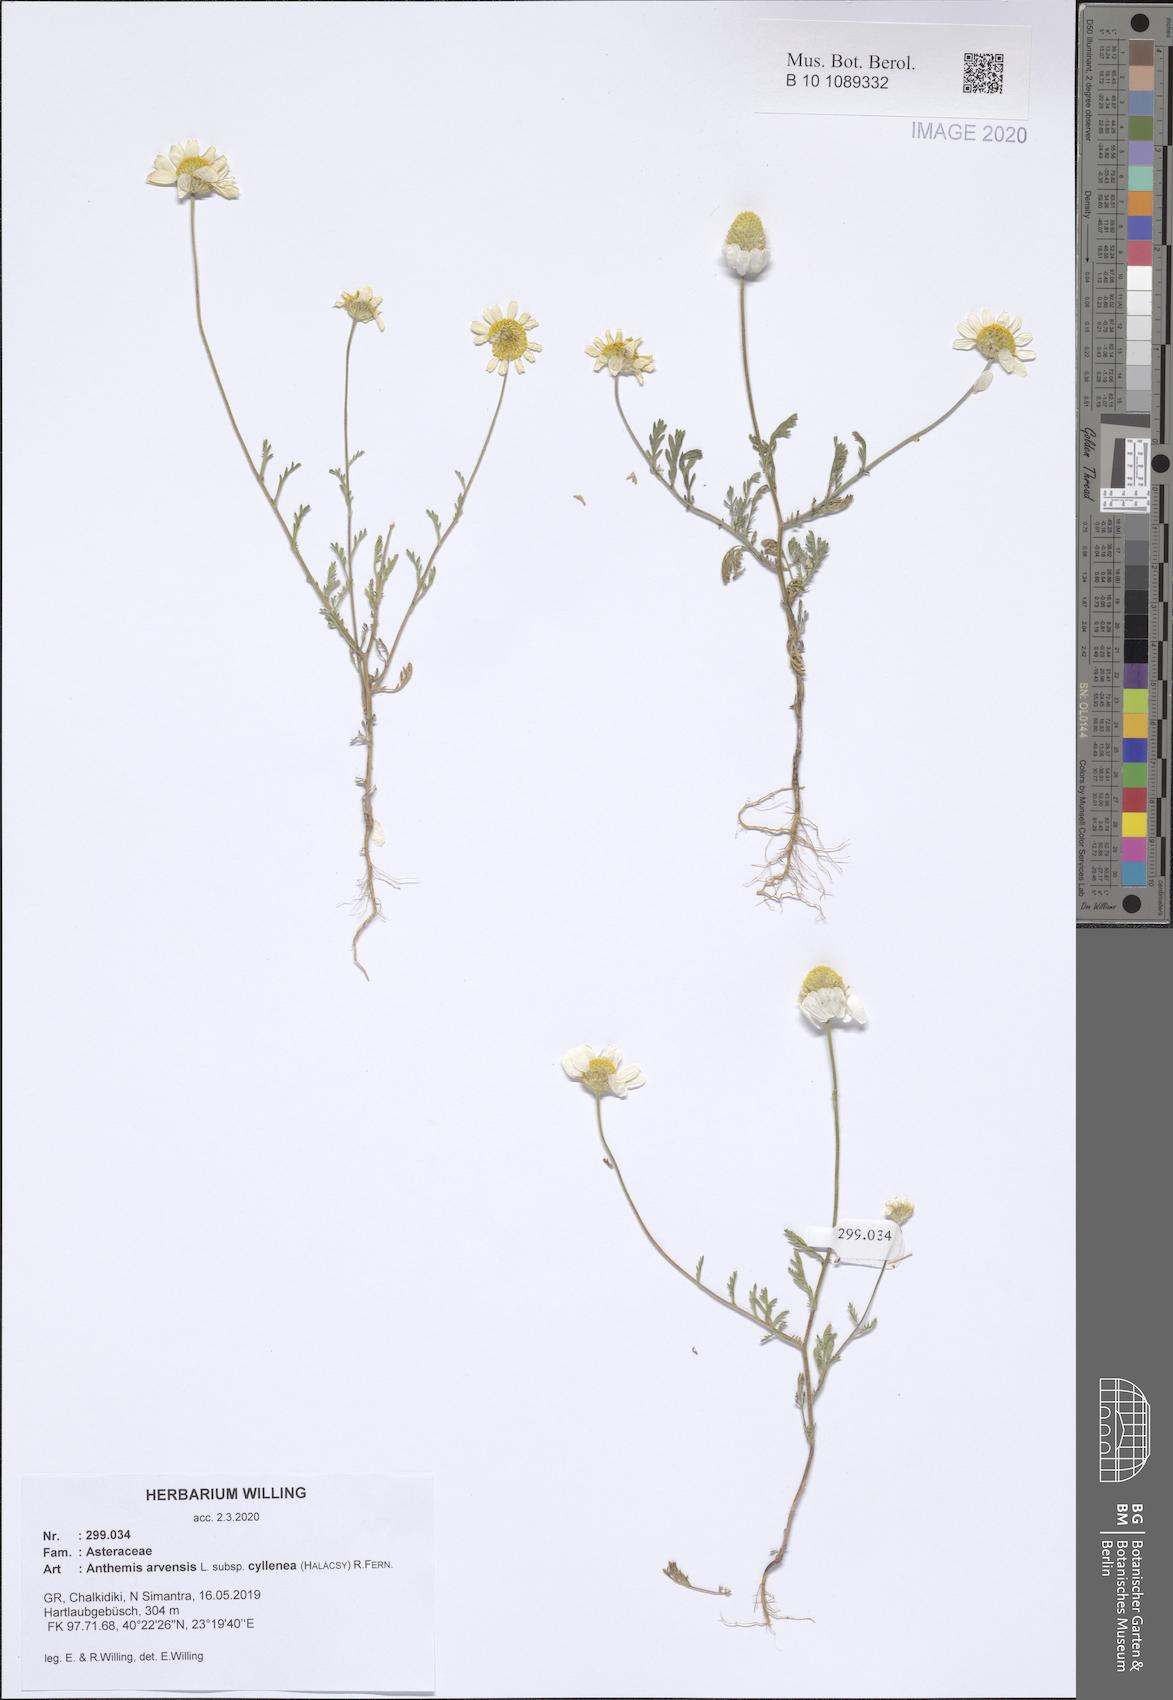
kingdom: Plantae
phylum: Tracheophyta
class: Magnoliopsida
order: Asterales
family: Asteraceae
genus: Anthemis
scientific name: Anthemis arvensis
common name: Corn chamomile
